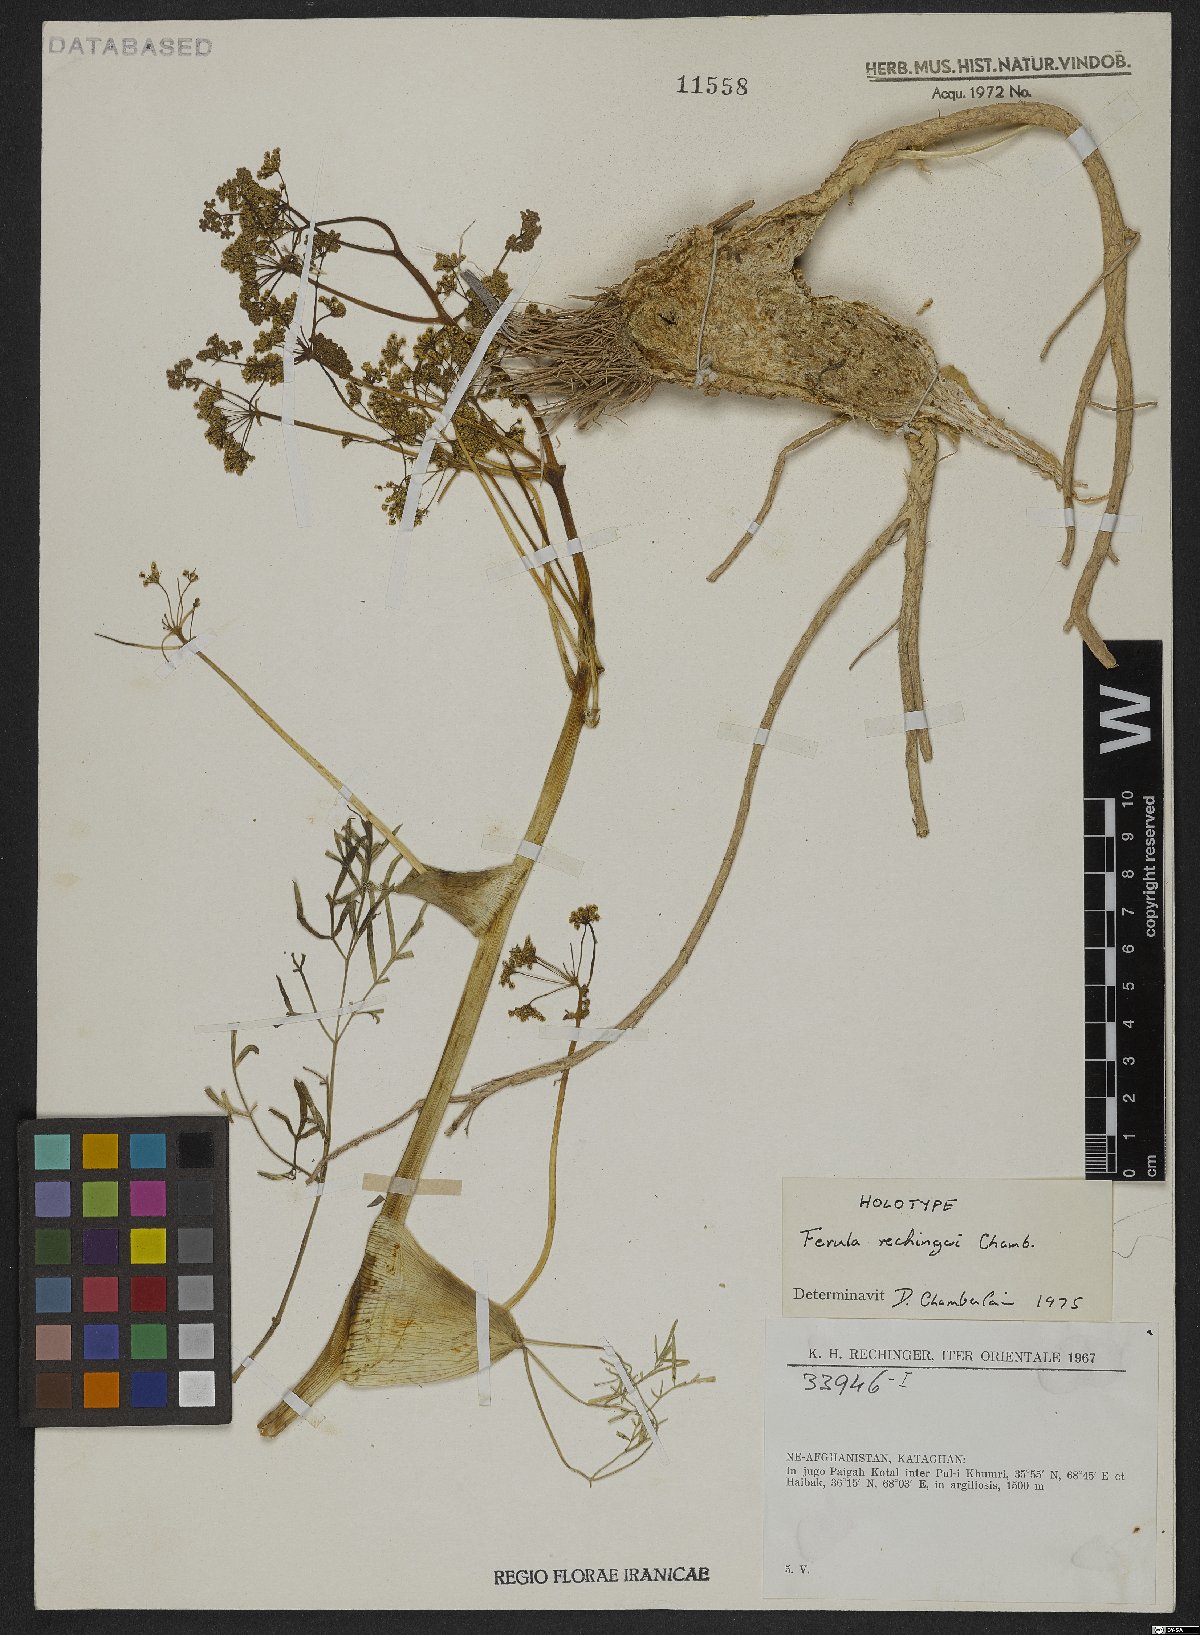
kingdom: Plantae
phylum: Tracheophyta
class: Magnoliopsida
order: Apiales
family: Apiaceae
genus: Ferula
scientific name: Ferula rechingeri
